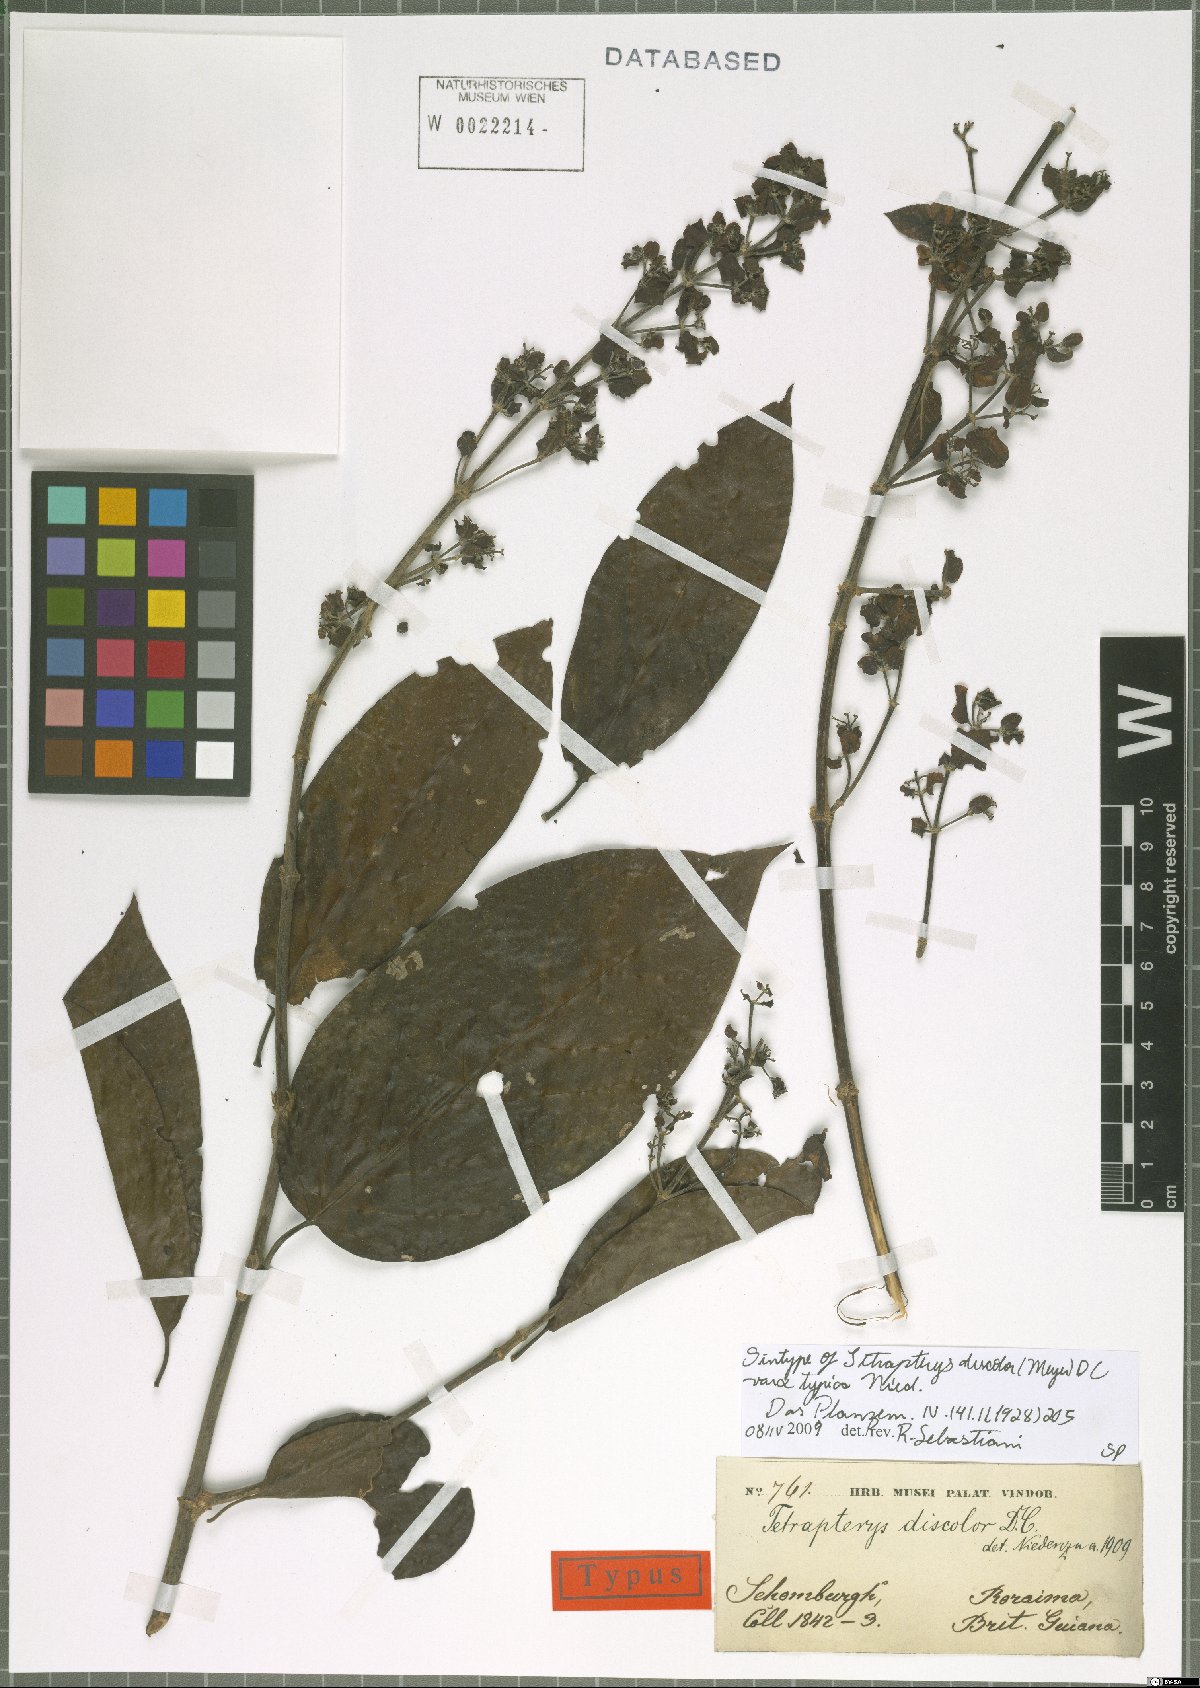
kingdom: Plantae
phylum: Tracheophyta
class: Magnoliopsida
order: Malpighiales
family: Malpighiaceae
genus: Tetrapterys
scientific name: Tetrapterys discolor
